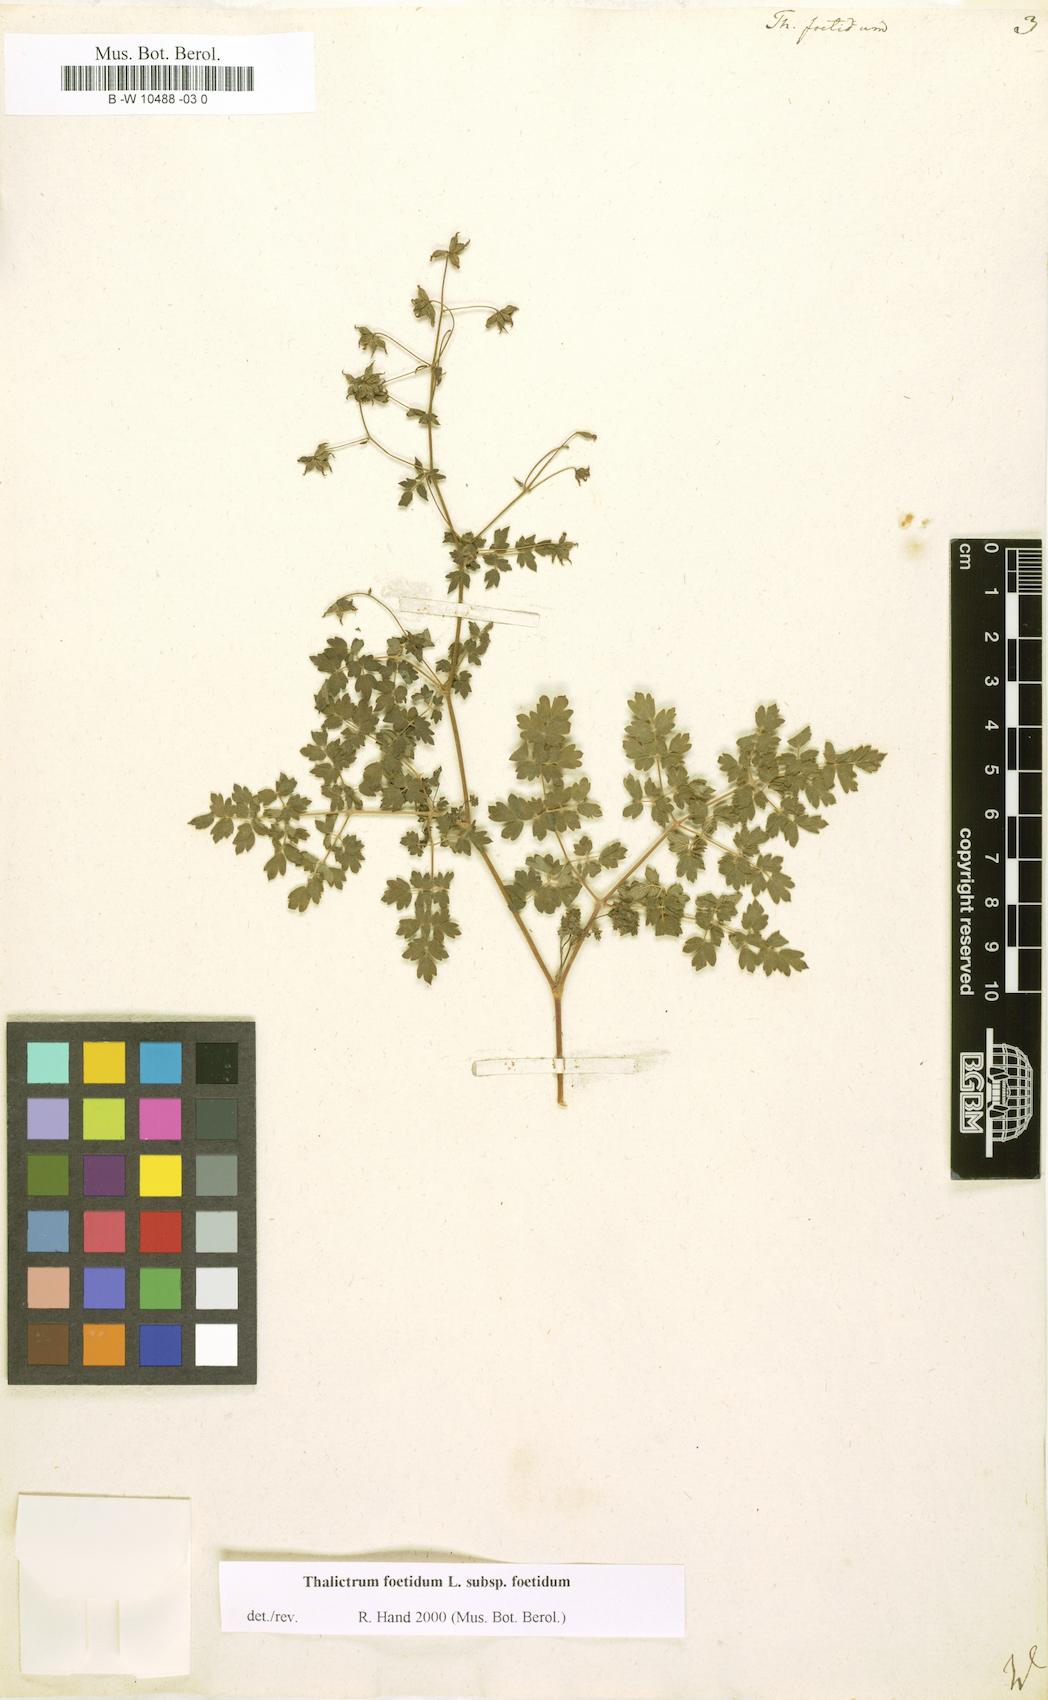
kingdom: Plantae
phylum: Tracheophyta
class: Magnoliopsida
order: Ranunculales
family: Ranunculaceae
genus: Thalictrum
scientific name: Thalictrum foetidum
